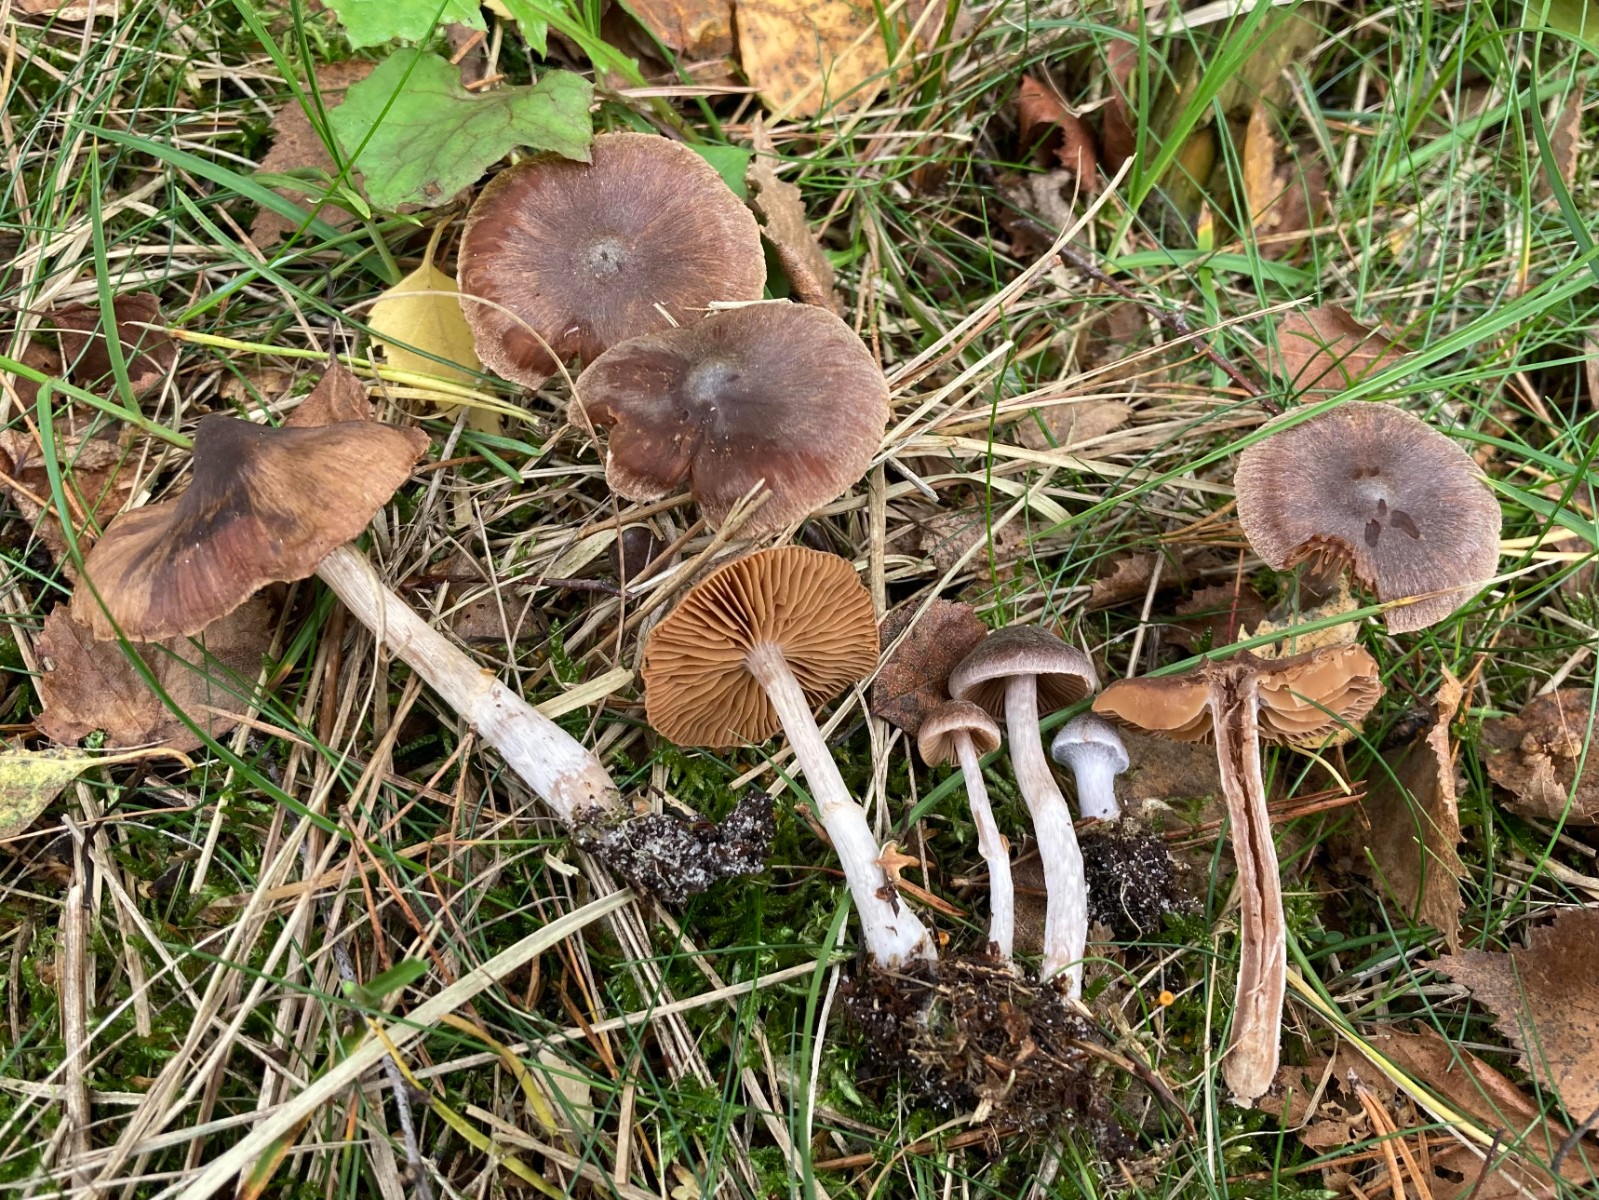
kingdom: Fungi
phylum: Basidiomycota
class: Agaricomycetes
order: Agaricales
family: Cortinariaceae
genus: Cortinarius
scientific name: Cortinarius hirtus
